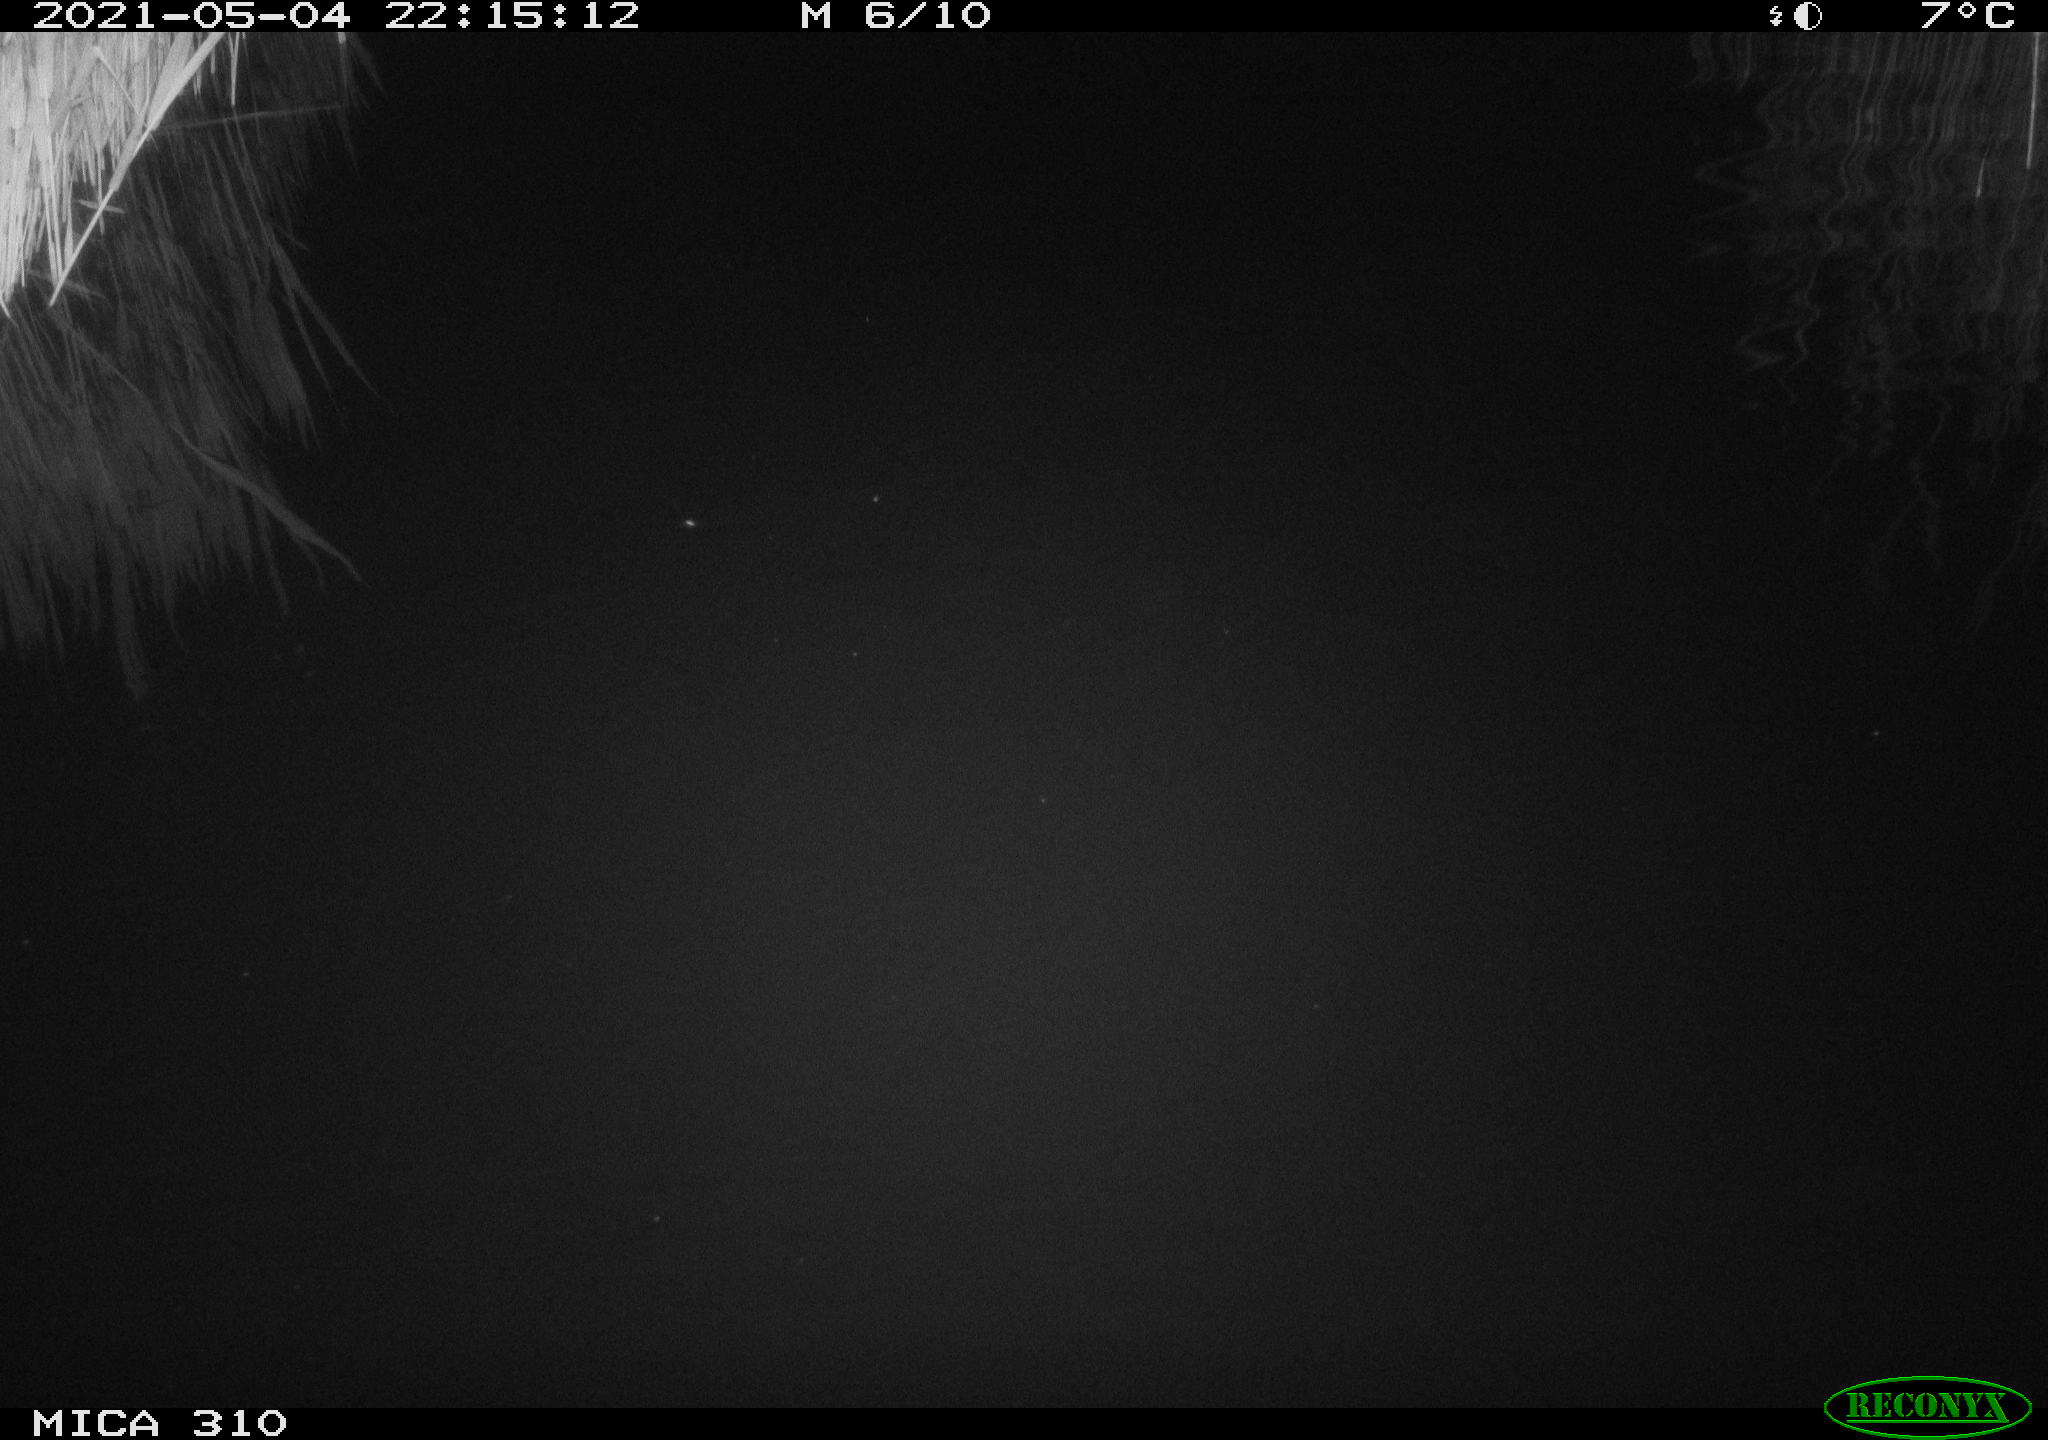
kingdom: Animalia
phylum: Chordata
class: Mammalia
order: Rodentia
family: Muridae
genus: Rattus
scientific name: Rattus norvegicus
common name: Brown rat
